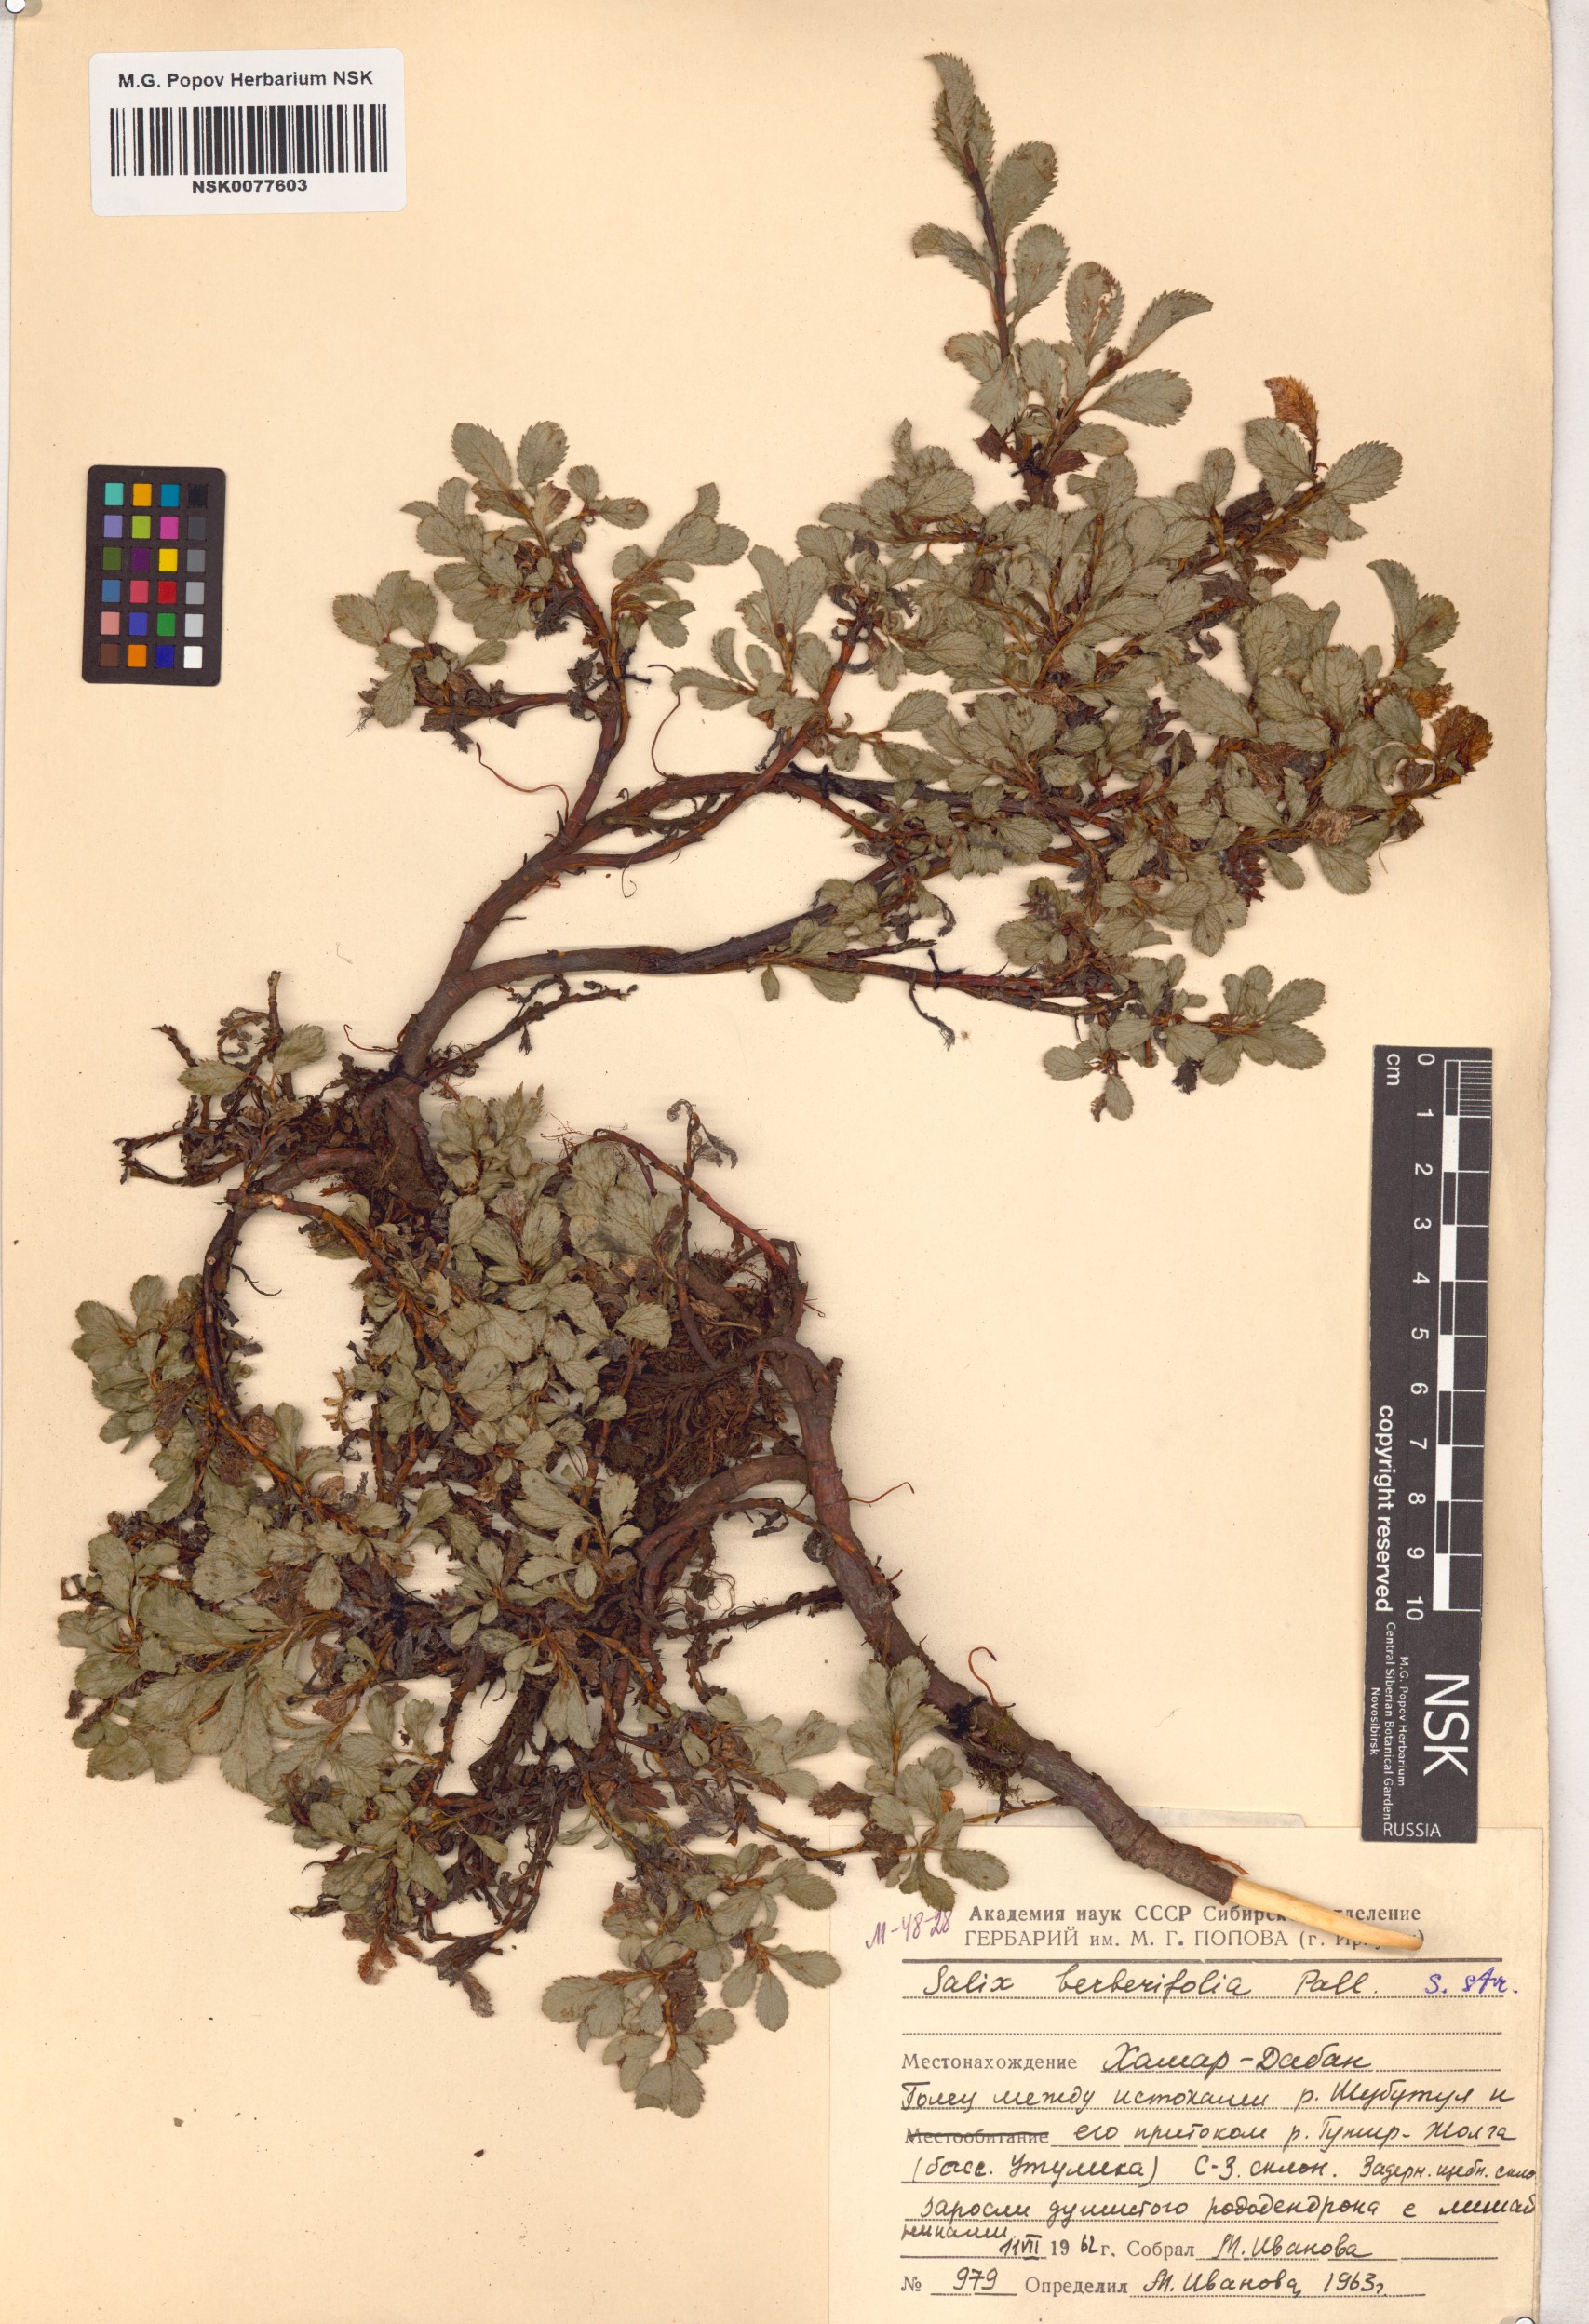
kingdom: Plantae
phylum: Tracheophyta
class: Magnoliopsida
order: Malpighiales
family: Salicaceae
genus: Salix
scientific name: Salix berberifolia
